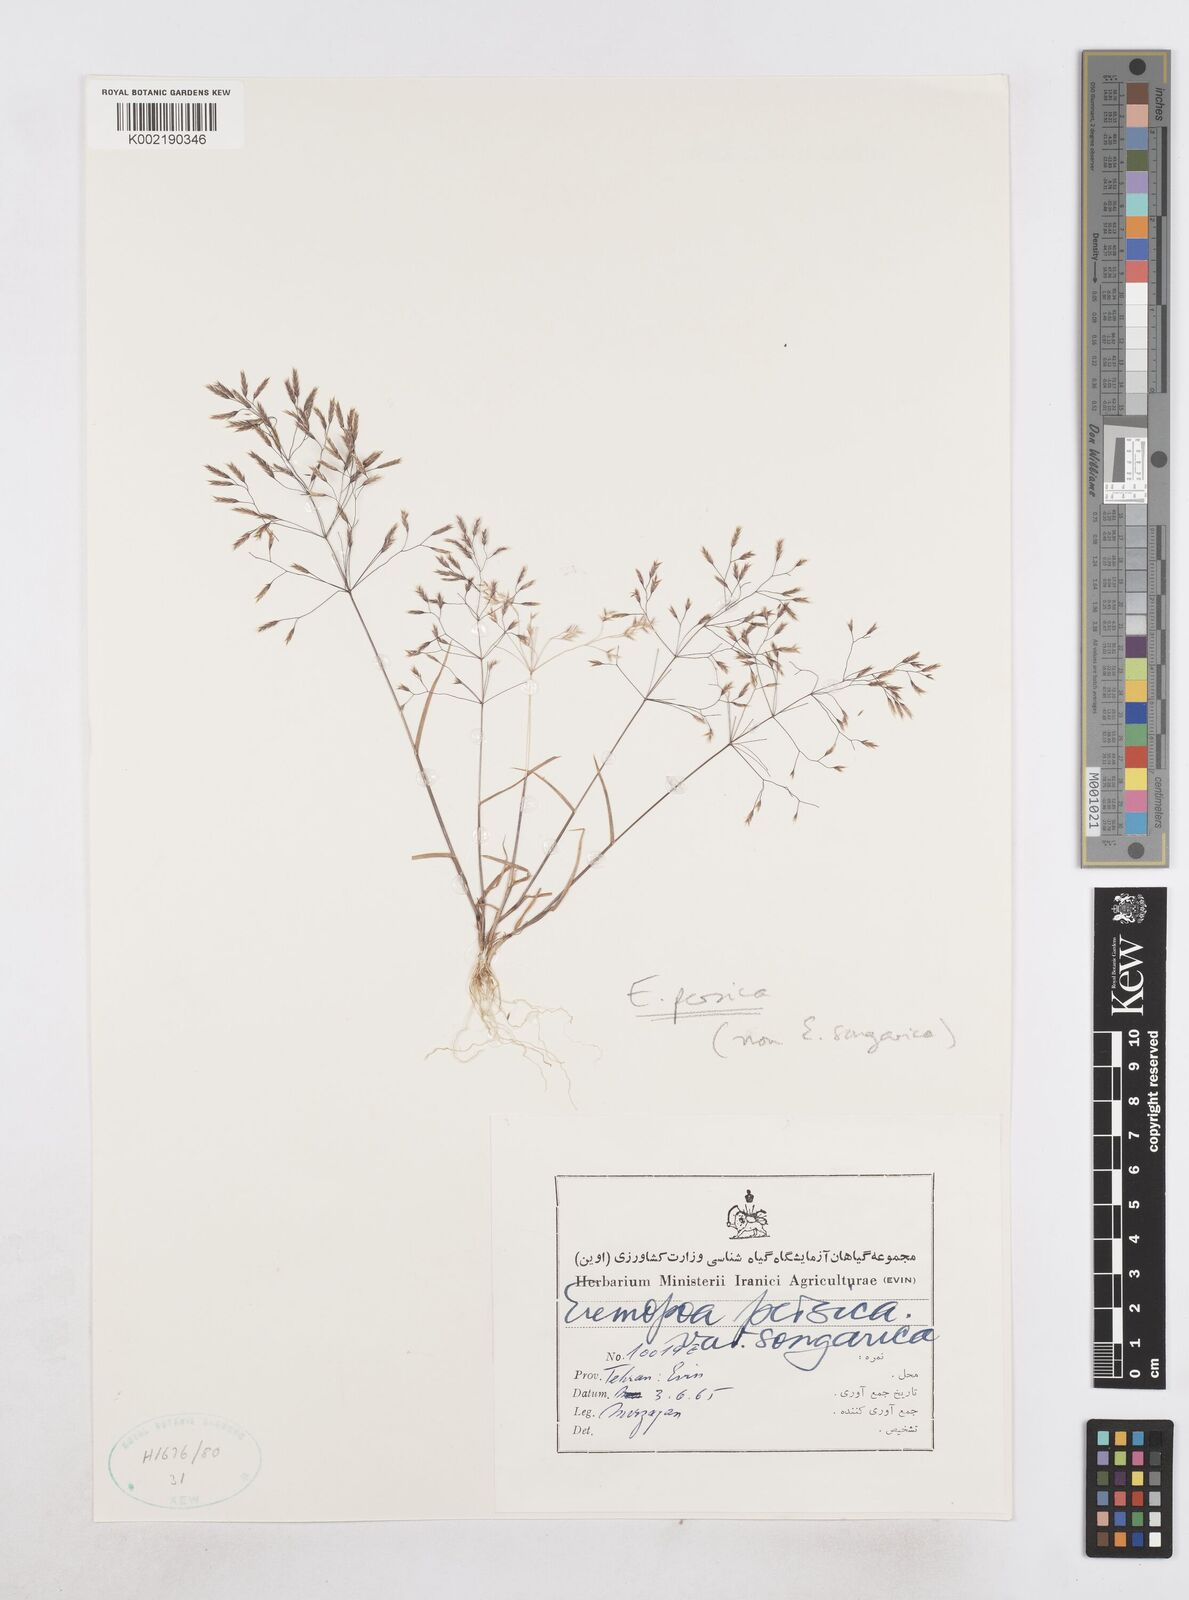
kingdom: Plantae
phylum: Tracheophyta
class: Liliopsida
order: Poales
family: Poaceae
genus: Poa
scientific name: Poa persica
